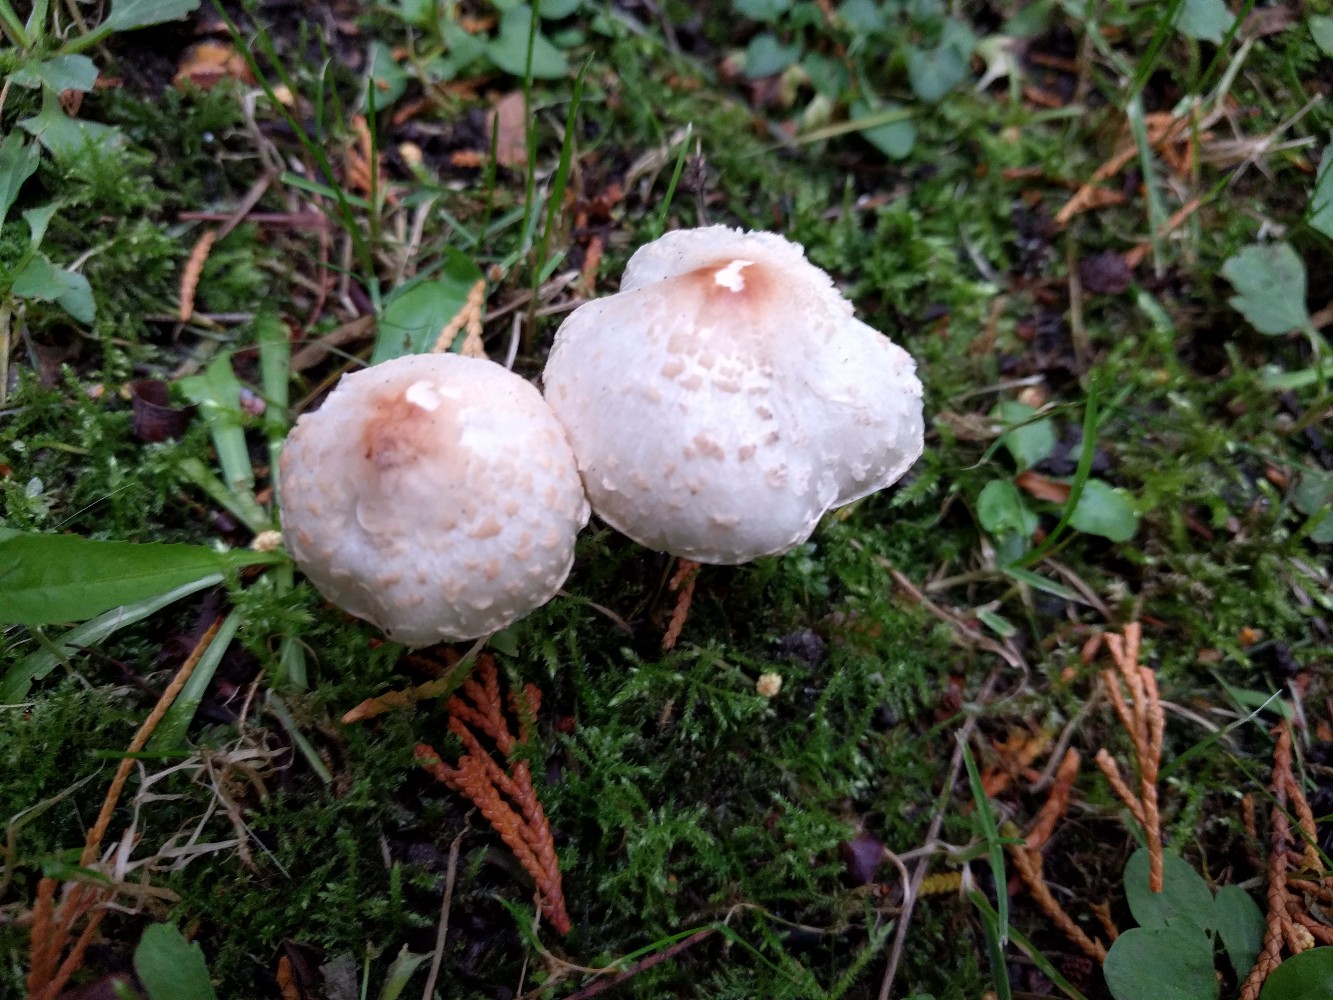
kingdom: Fungi
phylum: Basidiomycota
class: Agaricomycetes
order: Agaricales
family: Agaricaceae
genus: Lepiota
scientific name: Lepiota cristata
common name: stinkende parasolhat
